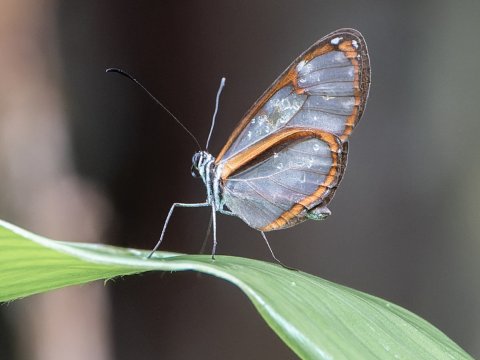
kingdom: Animalia
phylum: Arthropoda
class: Insecta
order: Lepidoptera
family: Nymphalidae
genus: Oleria
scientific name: Oleria amalda
